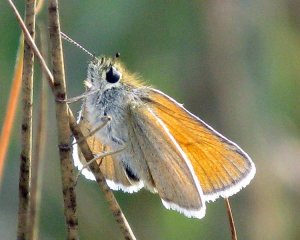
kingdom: Animalia
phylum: Arthropoda
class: Insecta
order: Lepidoptera
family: Hesperiidae
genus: Thymelicus
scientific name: Thymelicus lineola
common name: European Skipper
